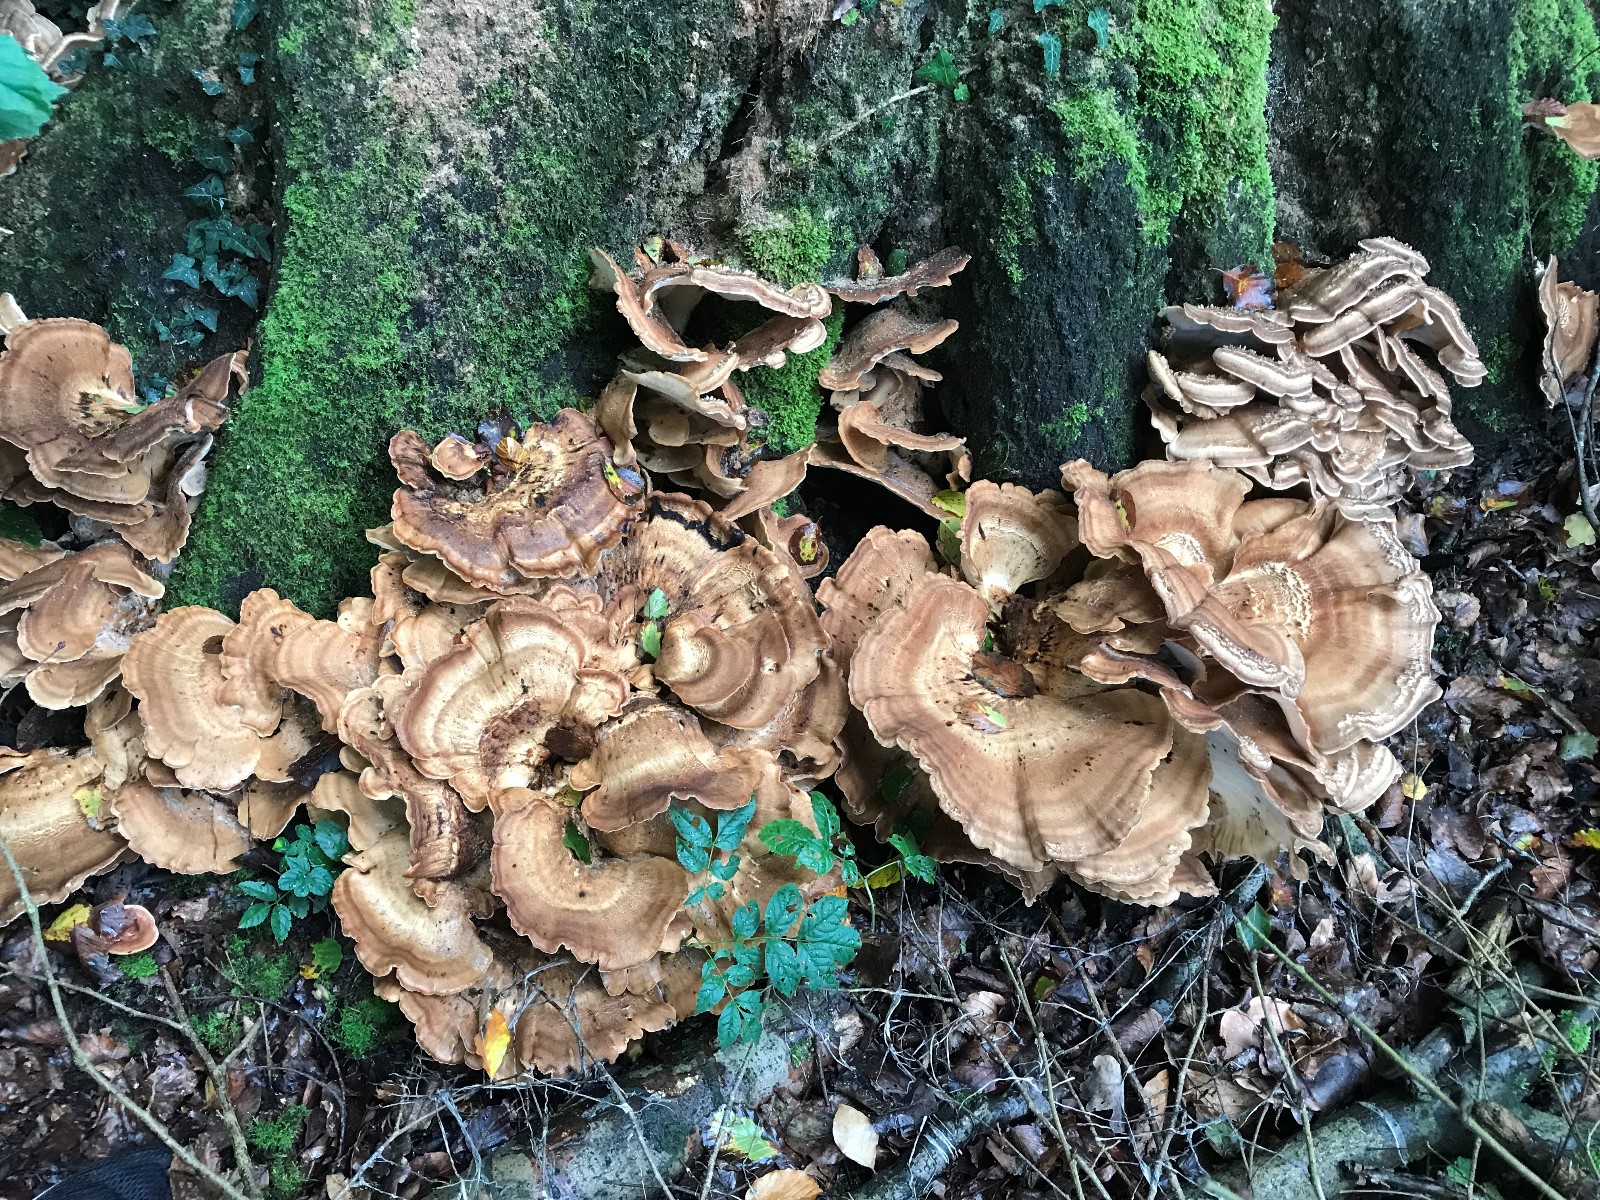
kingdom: Fungi
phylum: Basidiomycota
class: Agaricomycetes
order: Polyporales
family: Meripilaceae
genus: Meripilus
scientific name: Meripilus giganteus
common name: kæmpeporesvamp
